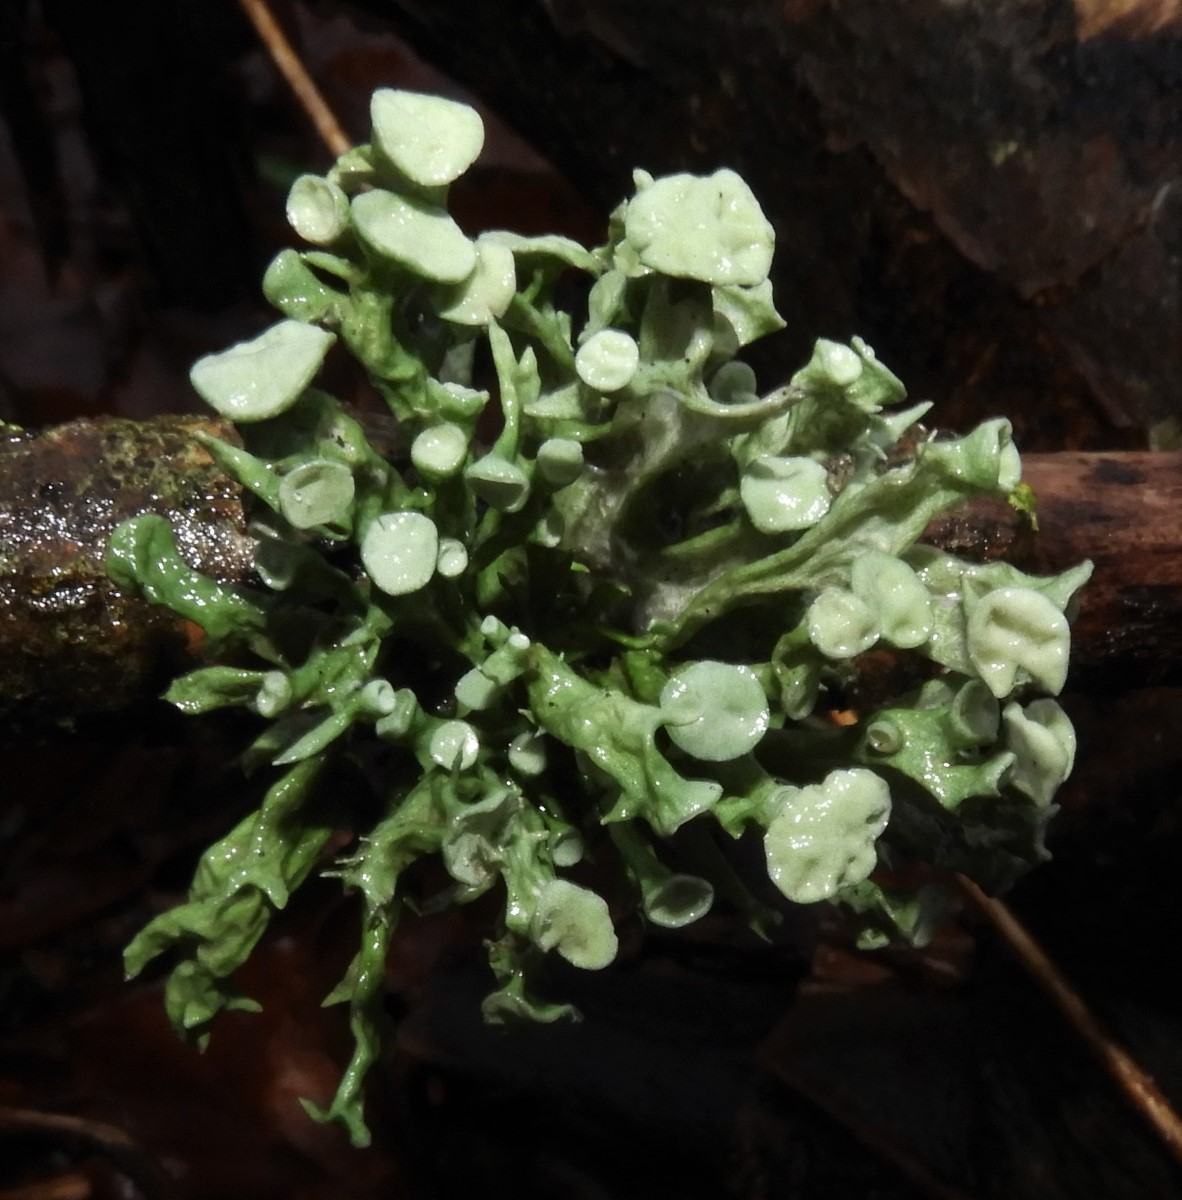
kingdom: Fungi
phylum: Ascomycota
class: Lecanoromycetes
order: Lecanorales
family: Ramalinaceae
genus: Ramalina
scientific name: Ramalina fastigiata
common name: tue-grenlav
